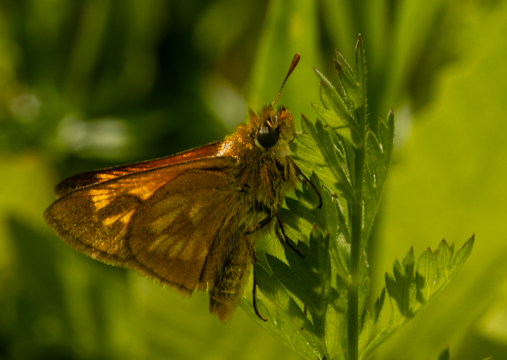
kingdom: Animalia
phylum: Arthropoda
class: Insecta
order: Lepidoptera
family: Hesperiidae
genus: Polites
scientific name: Polites
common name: Long Dash Skipper
